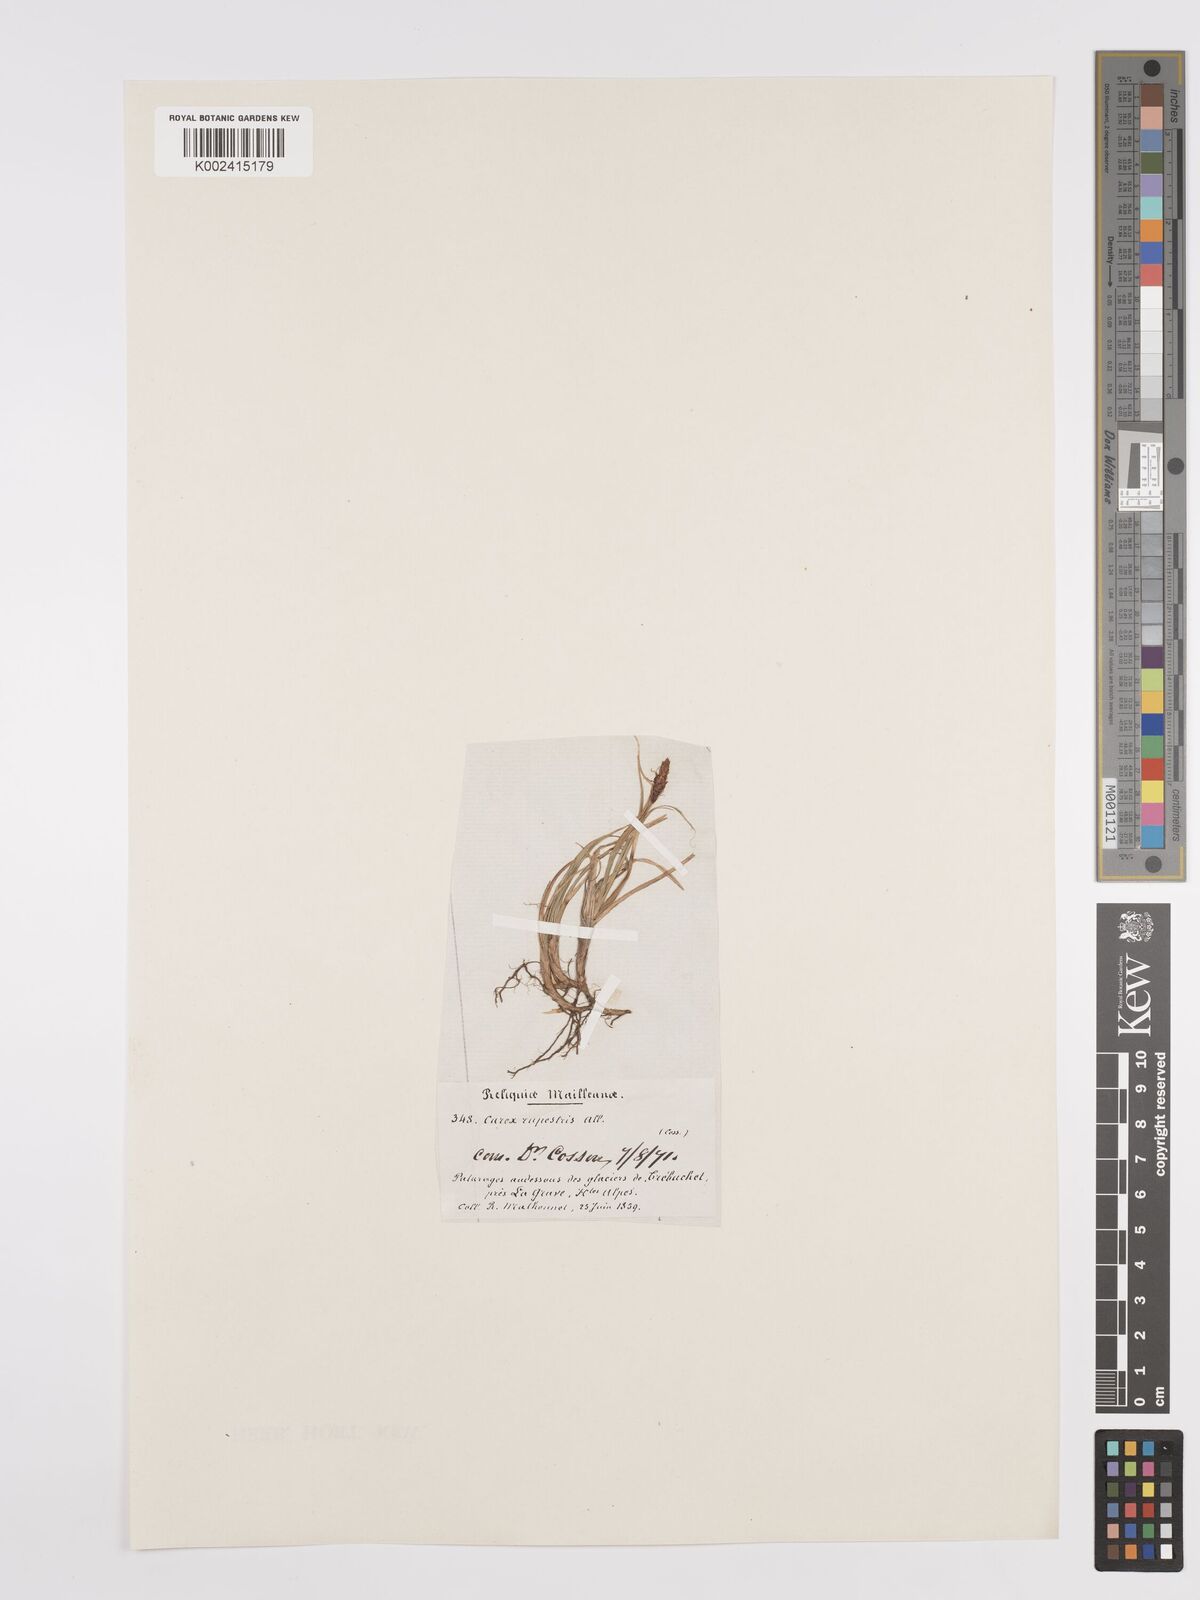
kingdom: Plantae
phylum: Tracheophyta
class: Liliopsida
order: Poales
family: Cyperaceae
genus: Carex
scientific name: Carex rupestris
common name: Rock sedge
